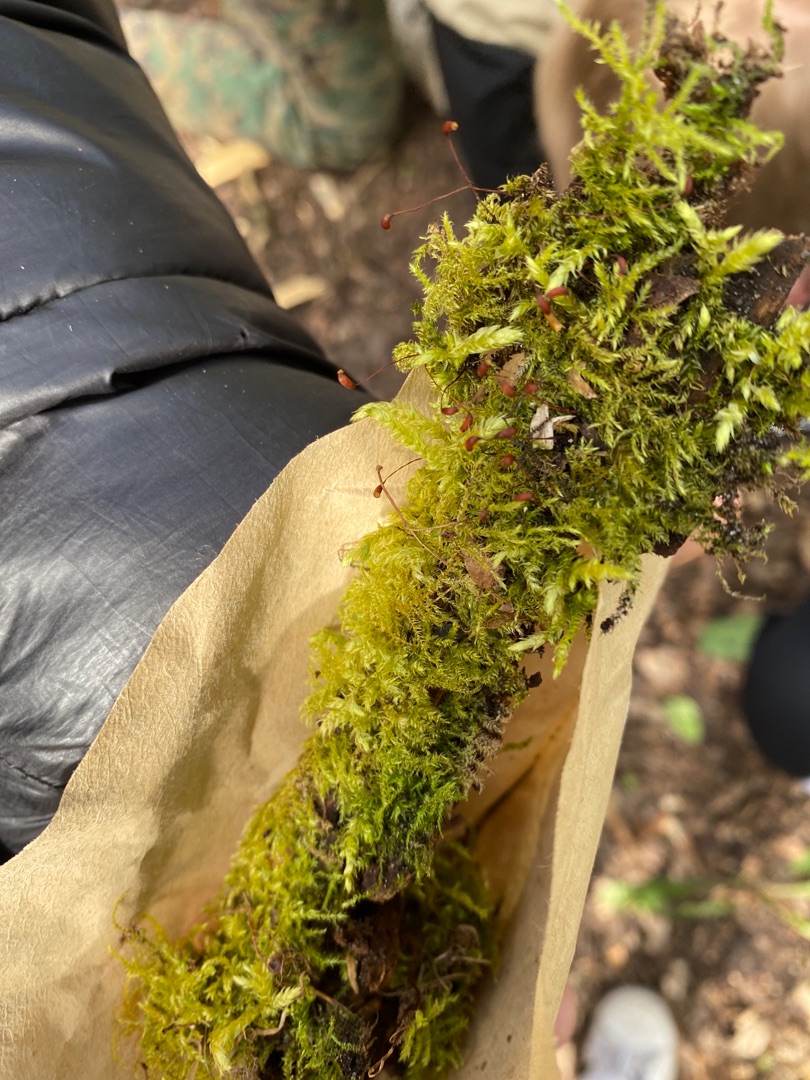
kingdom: Plantae
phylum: Bryophyta
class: Bryopsida
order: Hypnales
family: Brachytheciaceae
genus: Brachythecium
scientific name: Brachythecium rutabulum
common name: Almindelig kortkapsel
